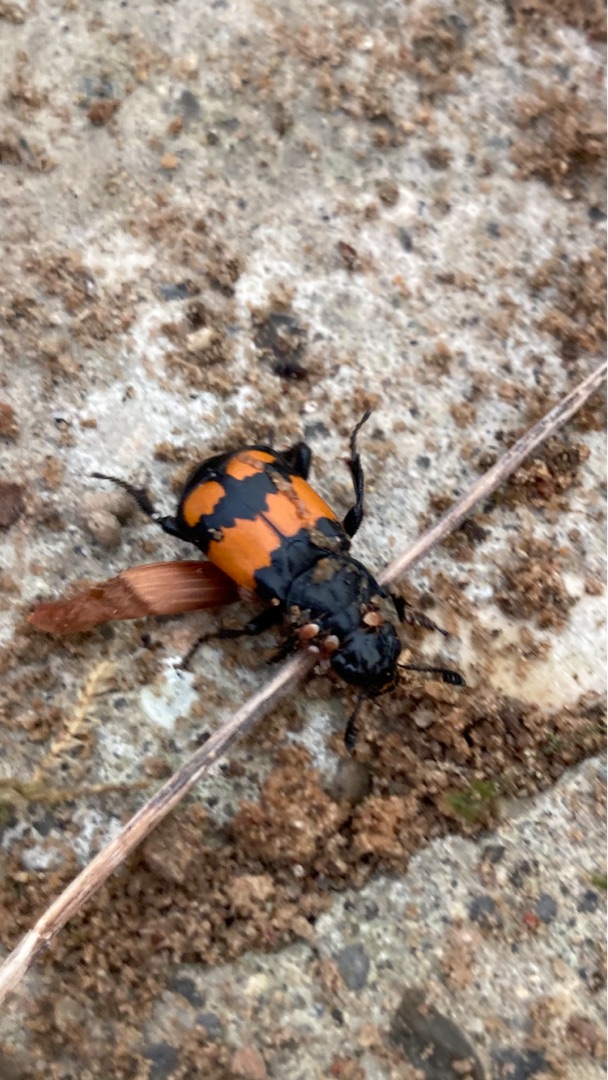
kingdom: Animalia
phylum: Arthropoda
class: Insecta
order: Coleoptera
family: Staphylinidae
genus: Nicrophorus
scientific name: Nicrophorus vespilloides
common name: Sortkøllet ådselgraver
